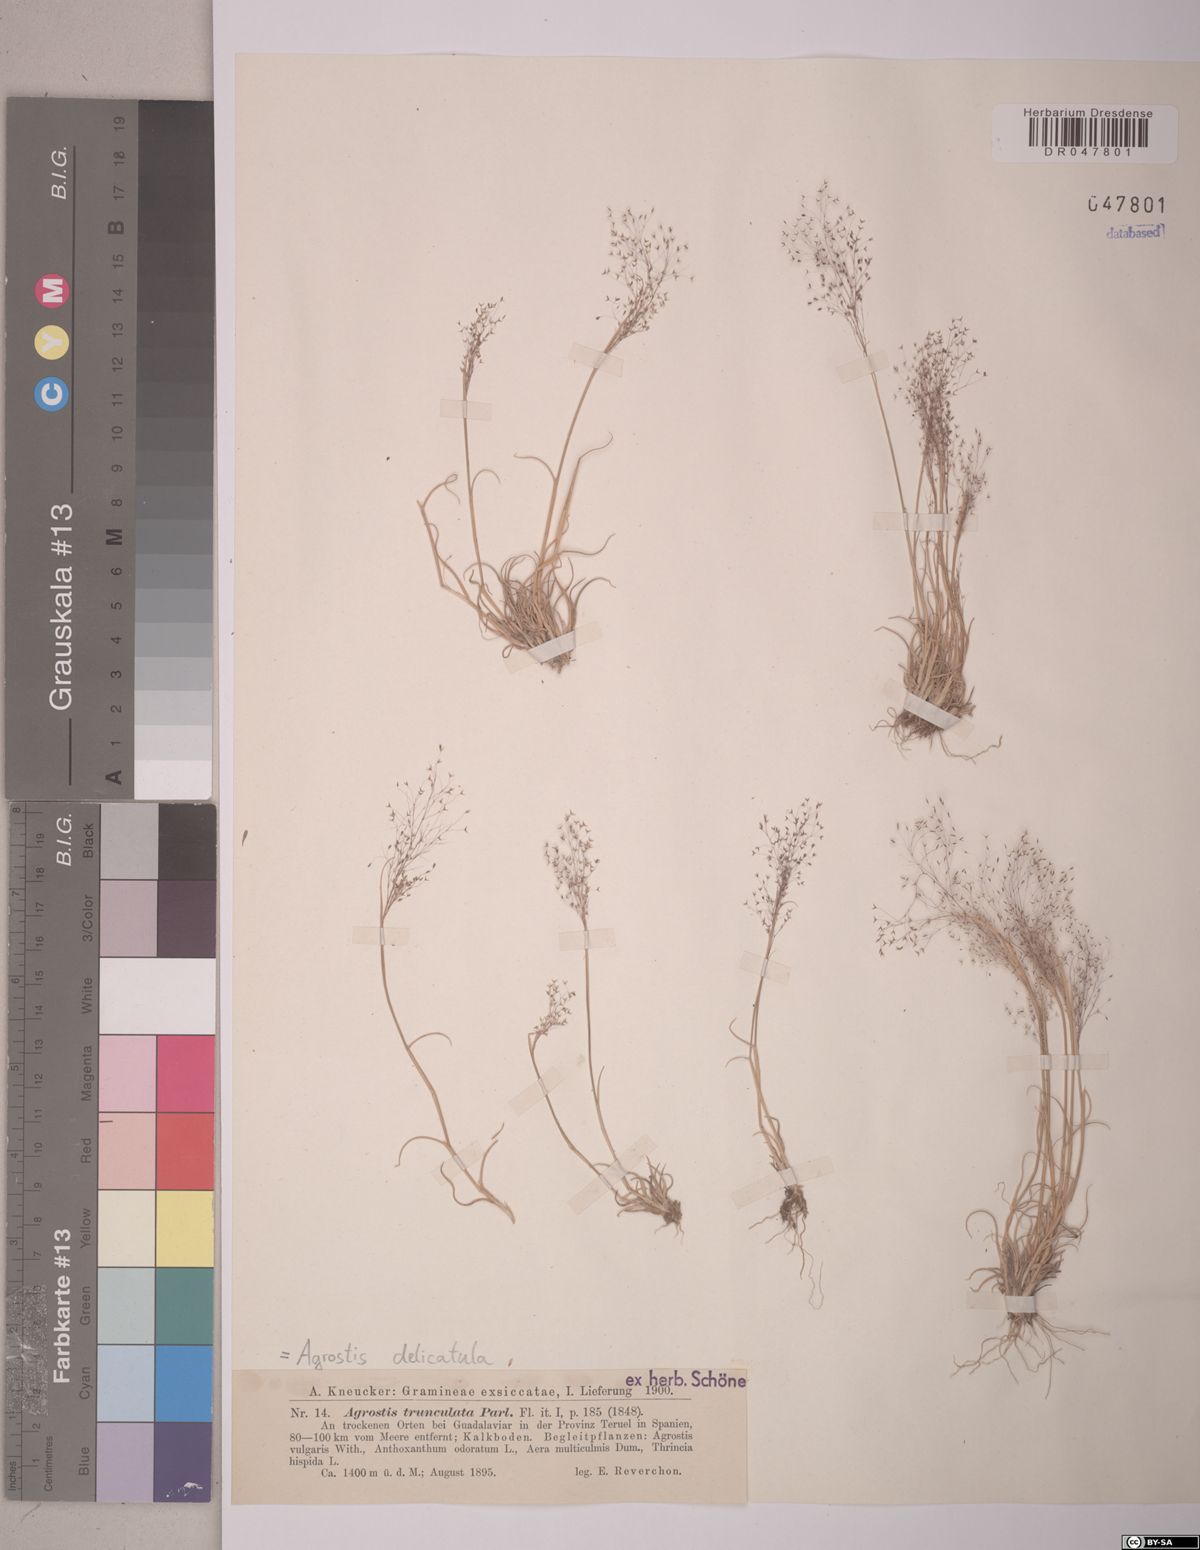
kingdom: Plantae
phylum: Tracheophyta
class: Liliopsida
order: Poales
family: Poaceae
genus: Agrostis
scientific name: Agrostis castellana
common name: Highland bent
